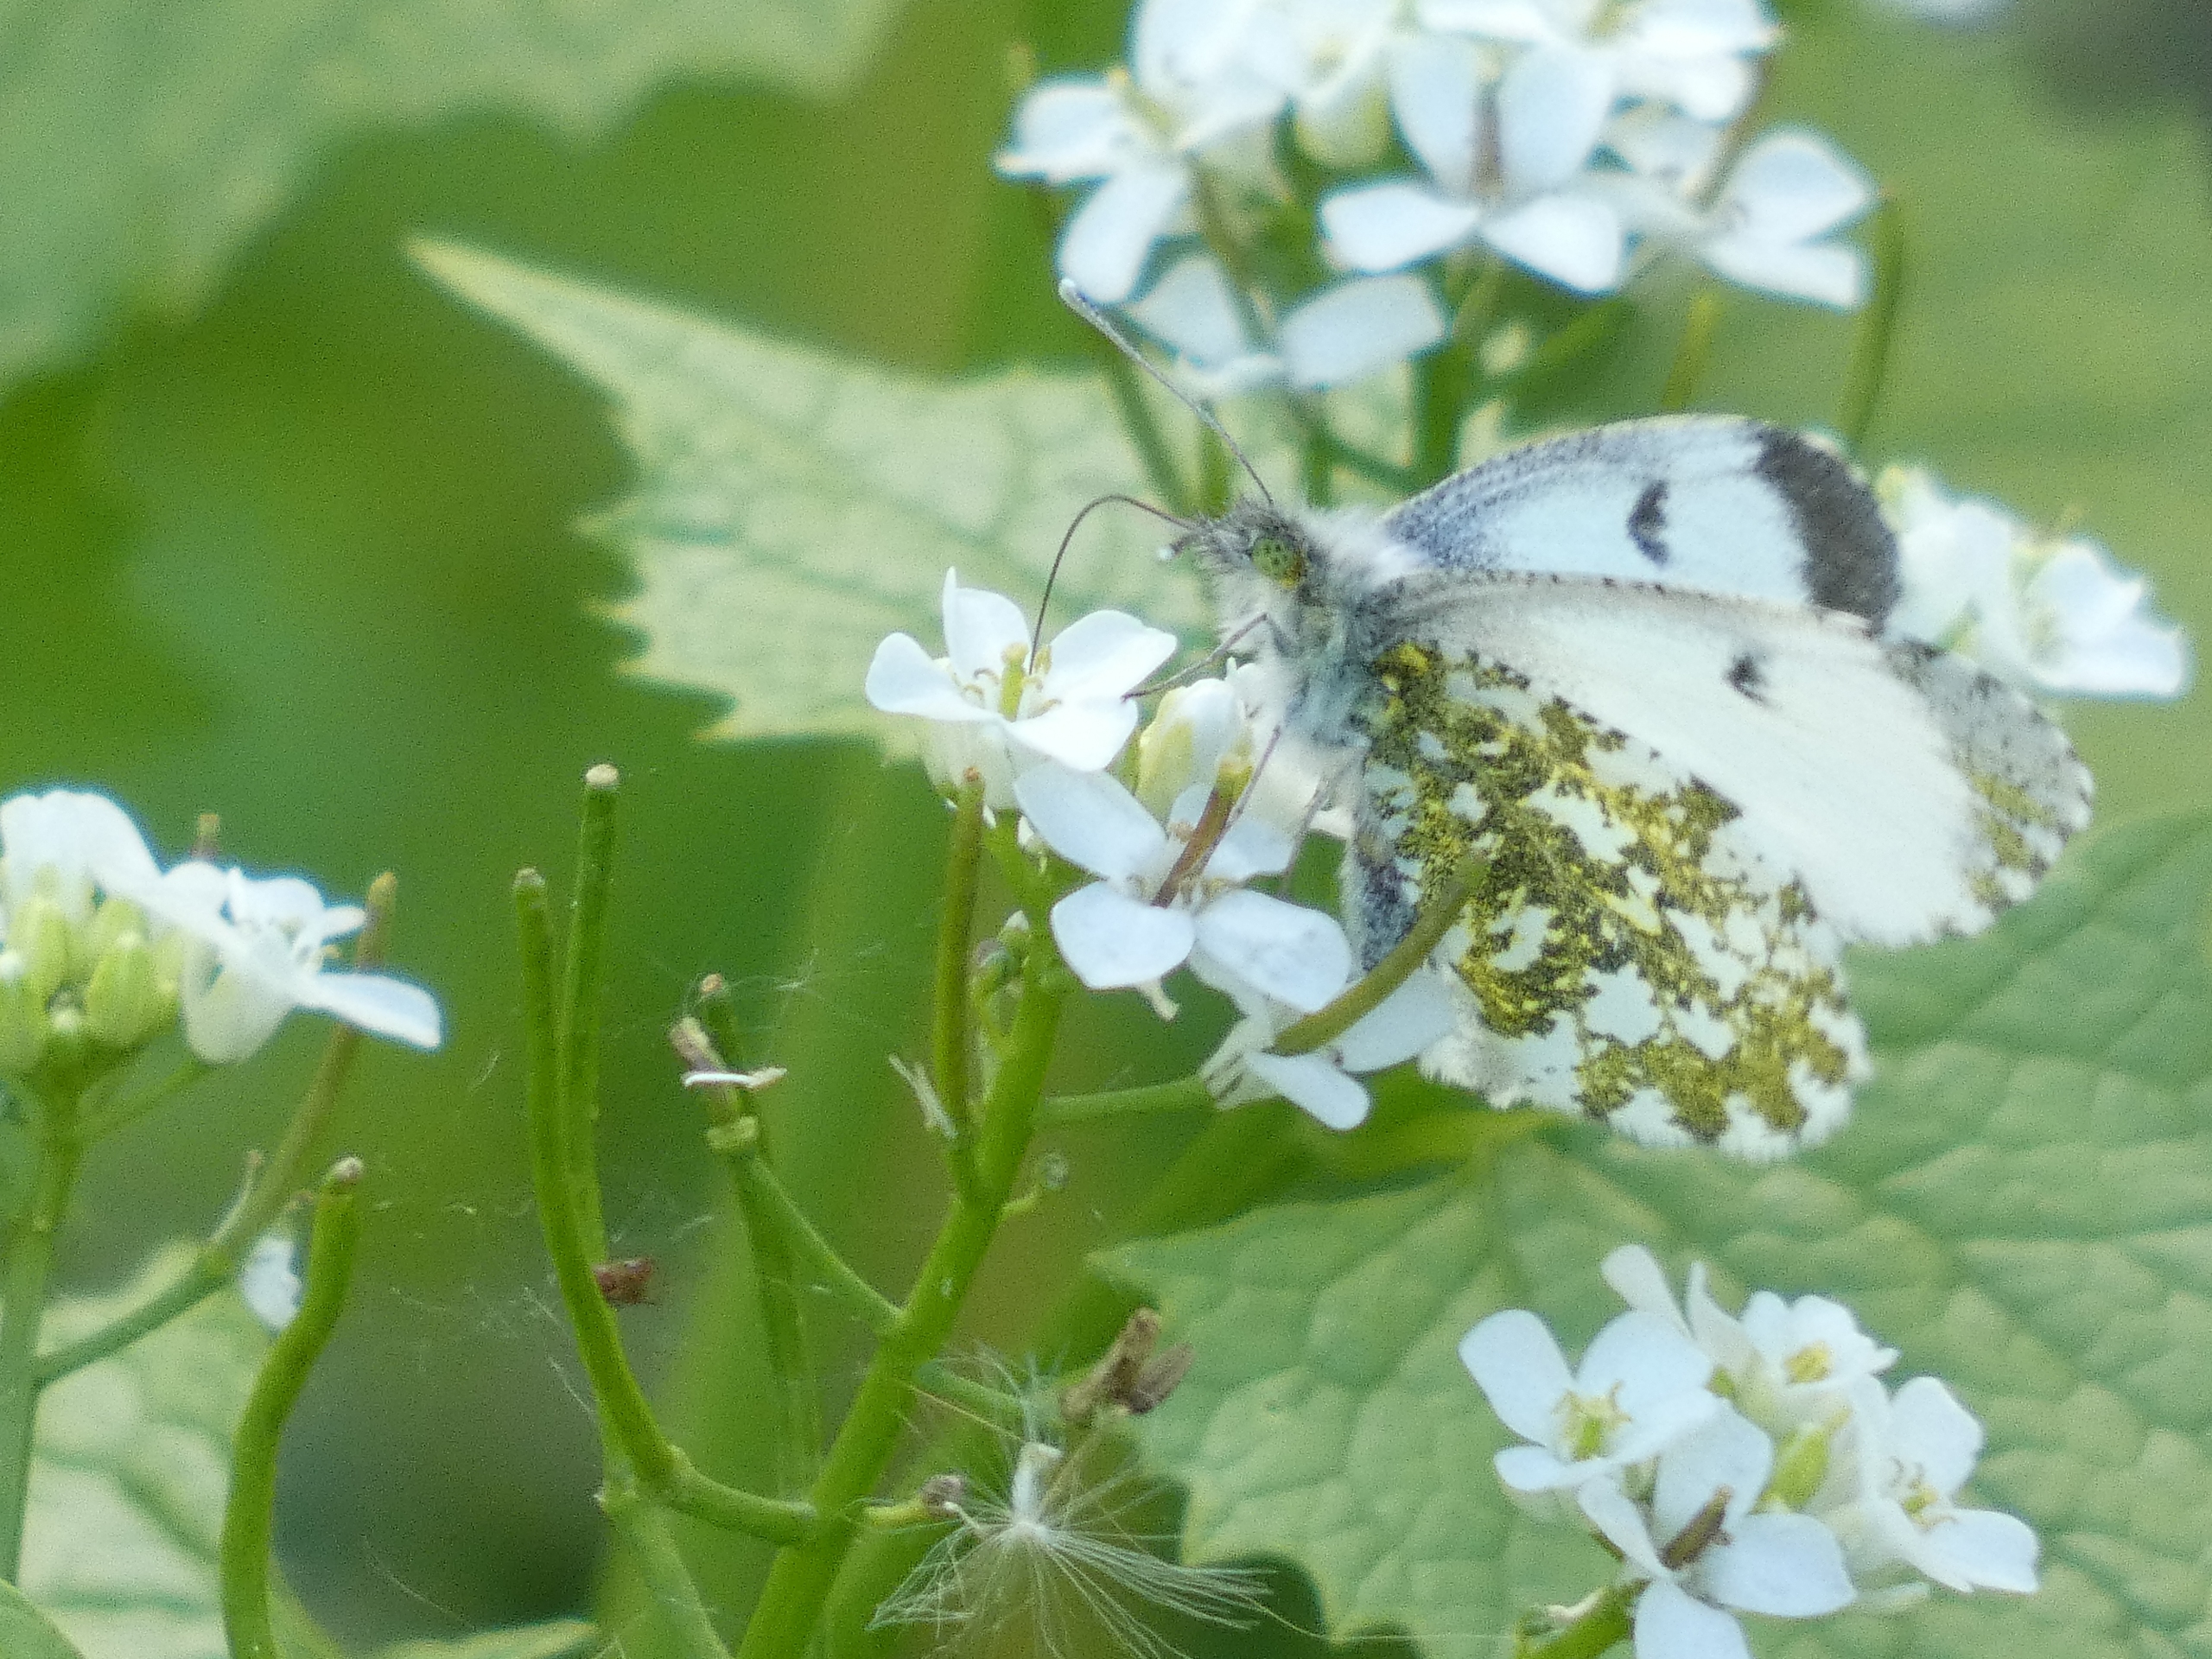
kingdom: Animalia
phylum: Arthropoda
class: Insecta
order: Lepidoptera
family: Pieridae
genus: Anthocharis
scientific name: Anthocharis cardamines
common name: Aurora
